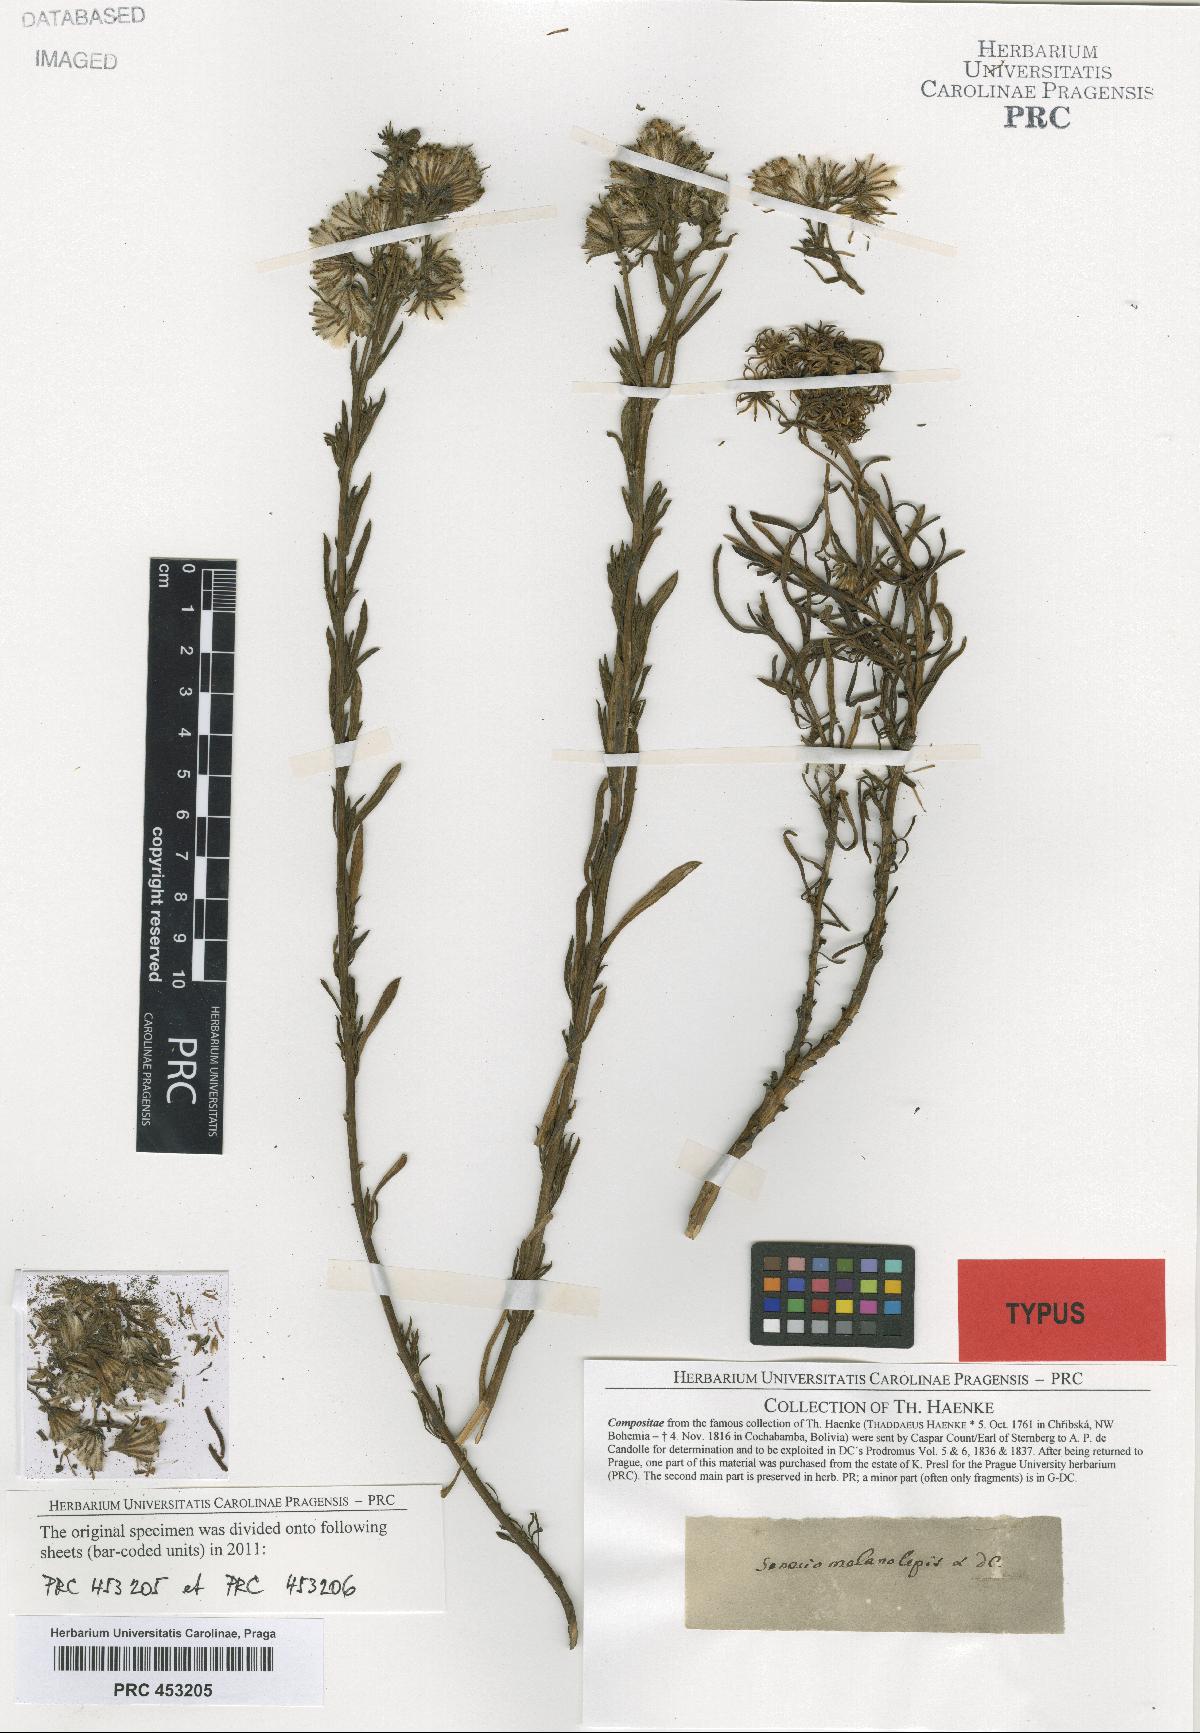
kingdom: Plantae
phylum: Tracheophyta
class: Magnoliopsida
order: Asterales
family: Asteraceae
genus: Senecio
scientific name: Senecio melanolepis
